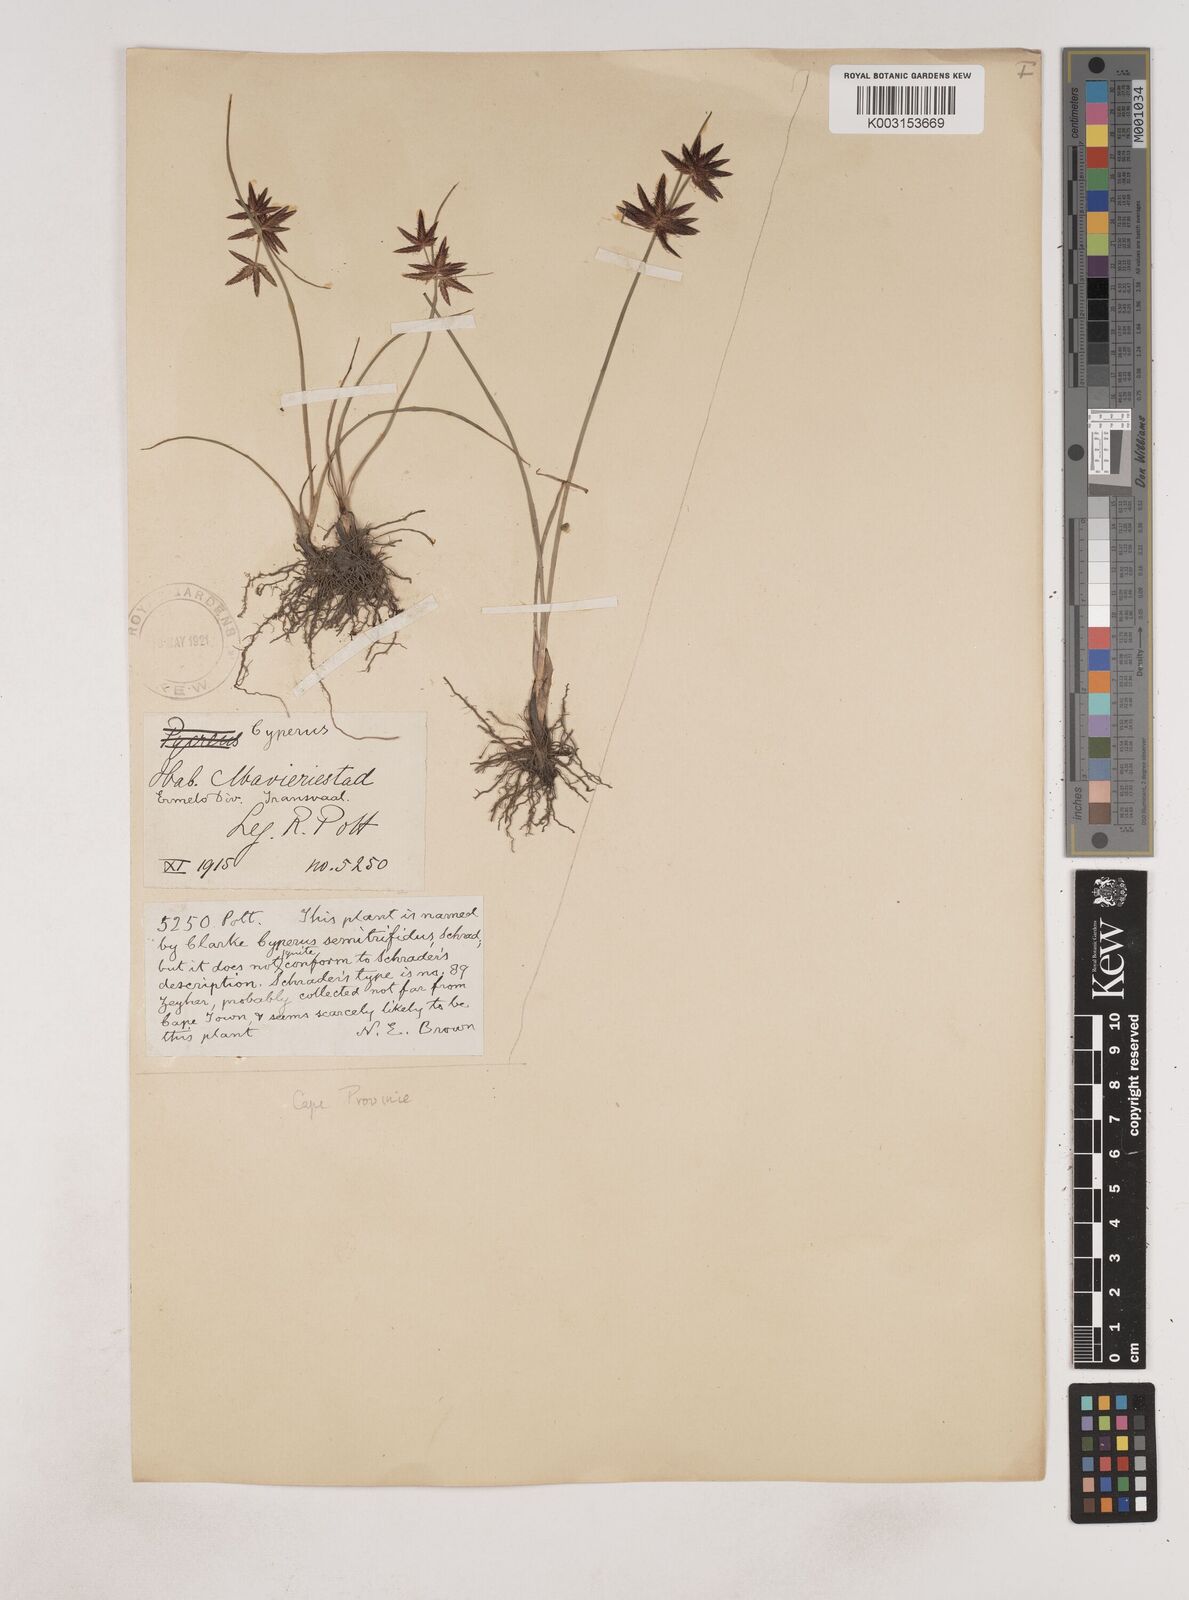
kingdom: Plantae
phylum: Tracheophyta
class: Liliopsida
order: Poales
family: Cyperaceae
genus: Cyperus
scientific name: Cyperus semitrifidus
